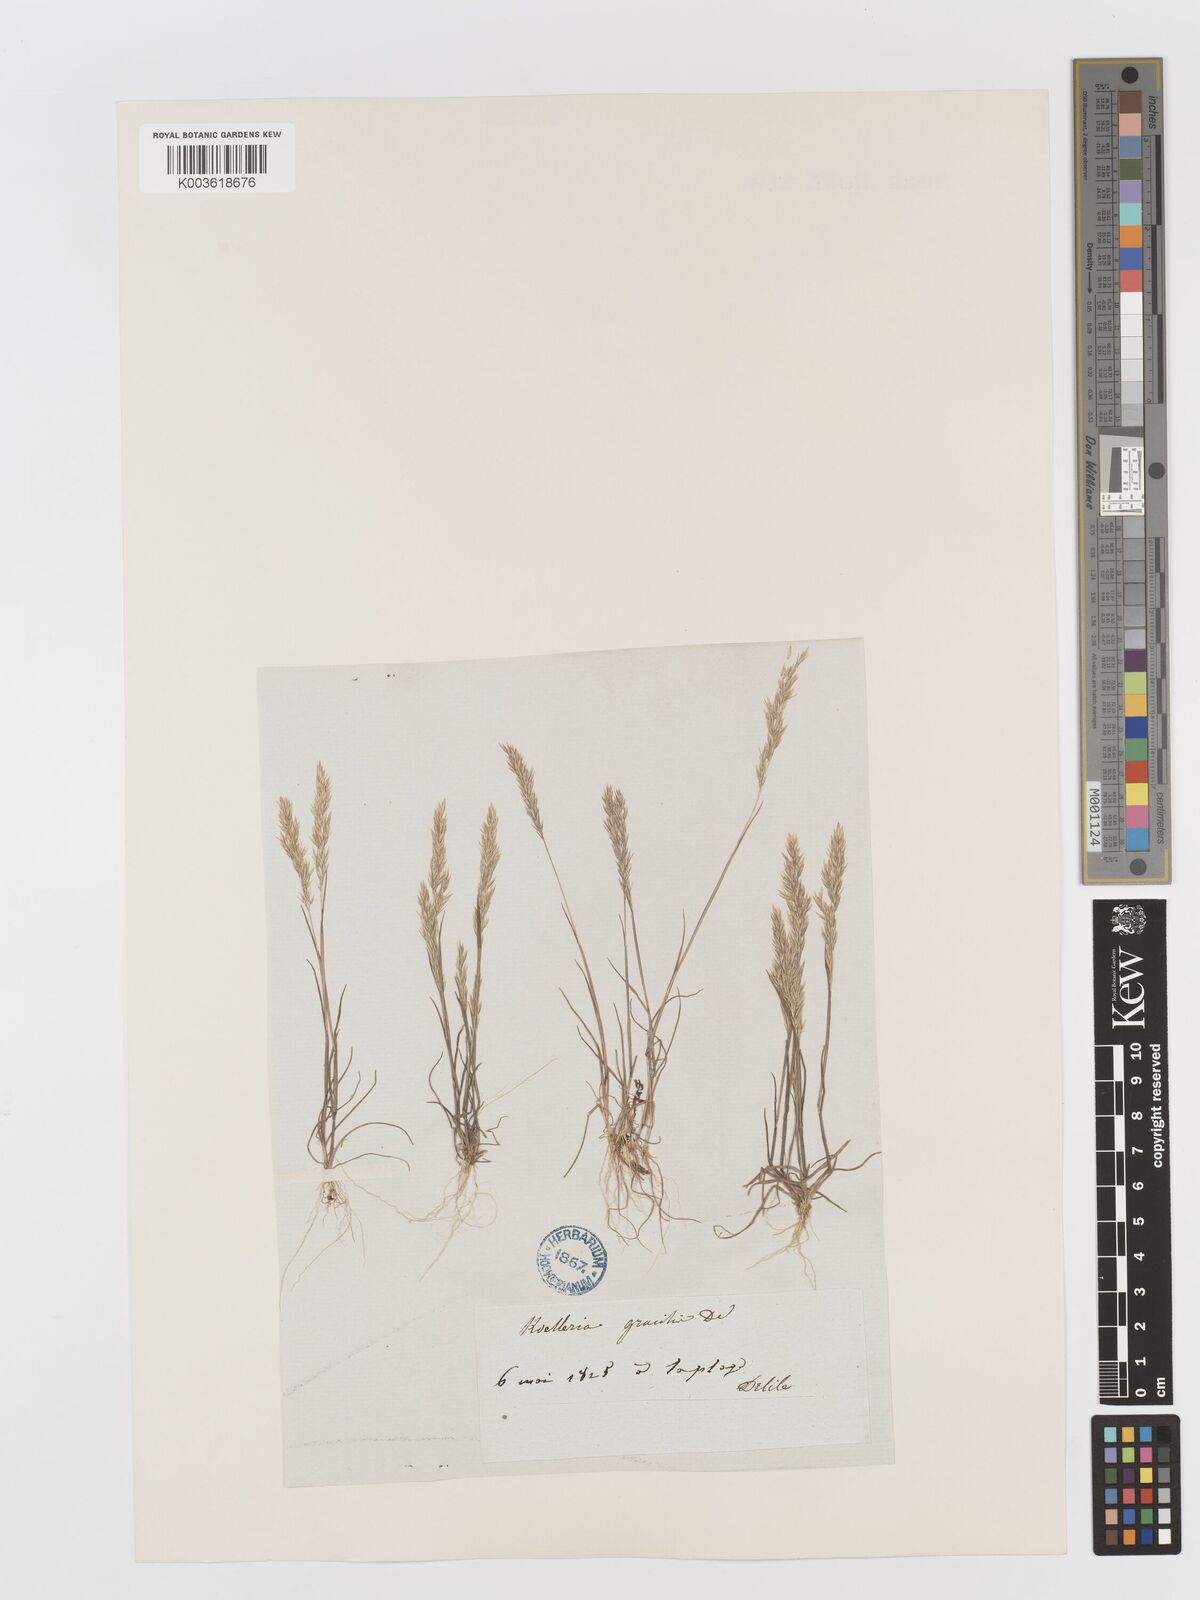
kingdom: Plantae
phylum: Tracheophyta
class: Liliopsida
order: Poales
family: Poaceae
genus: Avellinia
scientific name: Avellinia festucoides
